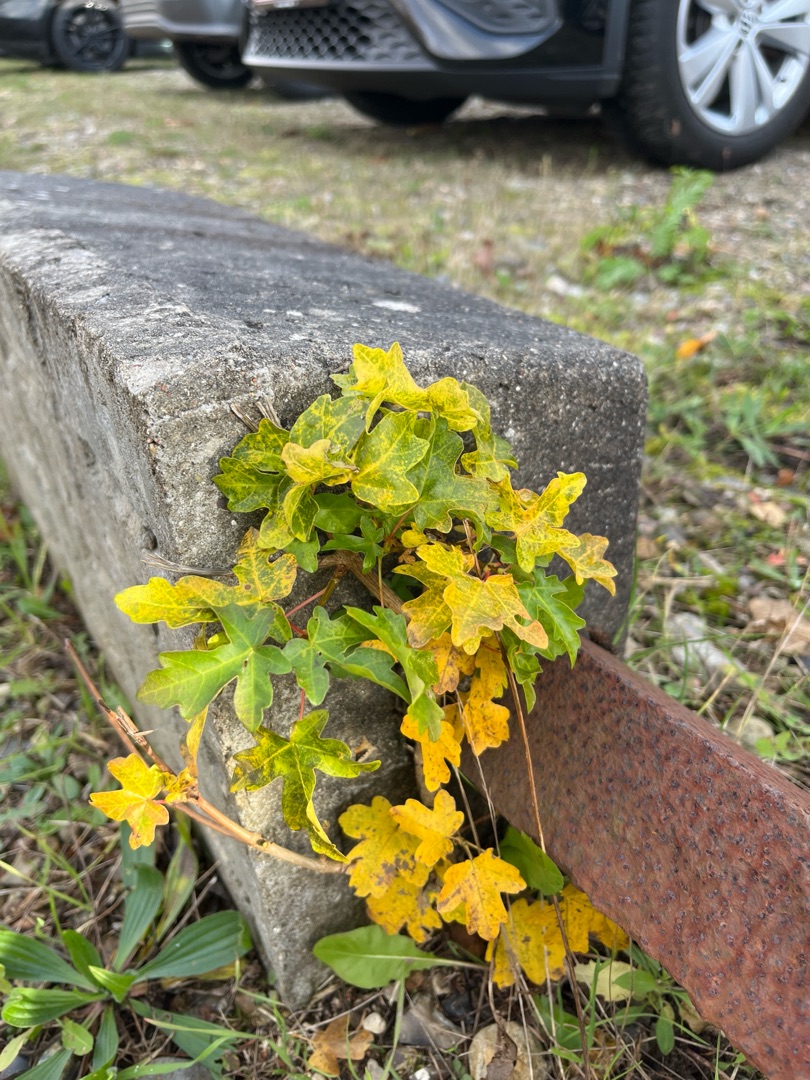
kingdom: Plantae
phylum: Tracheophyta
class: Magnoliopsida
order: Sapindales
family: Sapindaceae
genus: Acer
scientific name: Acer campestre
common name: Navr
